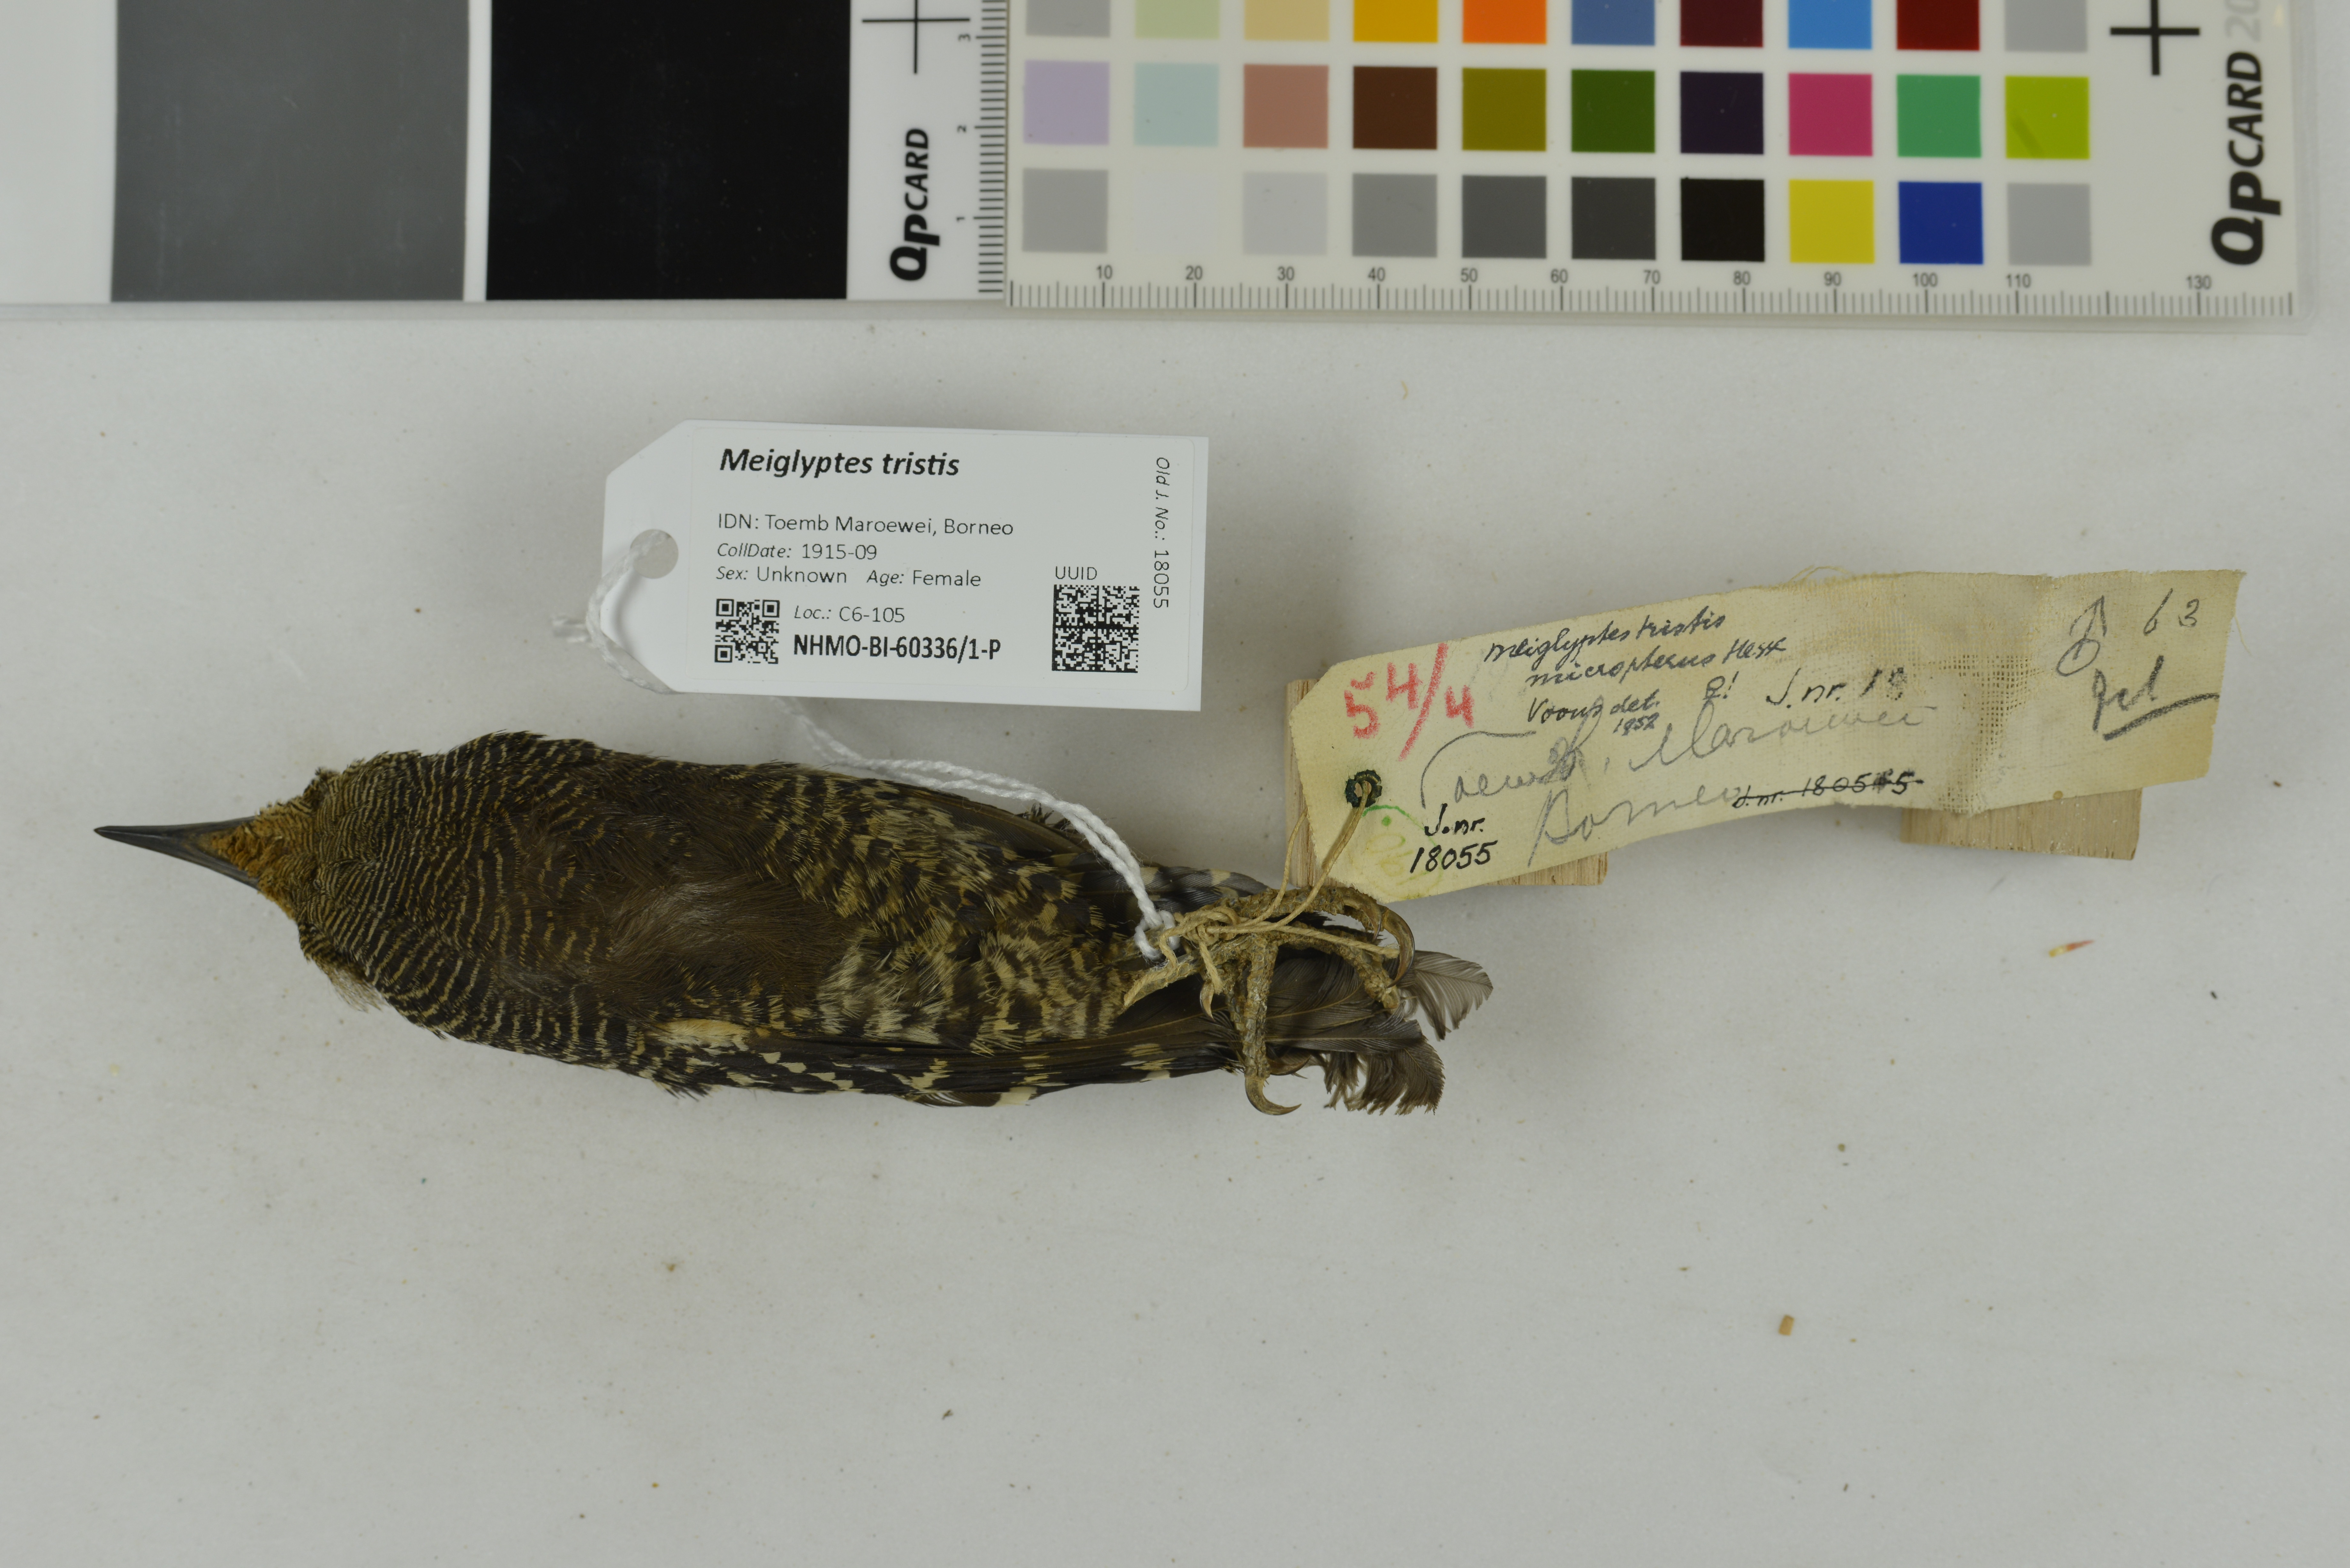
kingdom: Animalia
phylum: Chordata
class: Aves
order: Piciformes
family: Picidae
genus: Meiglyptes
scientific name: Meiglyptes tristis
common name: Buff-rumped woodpecker
